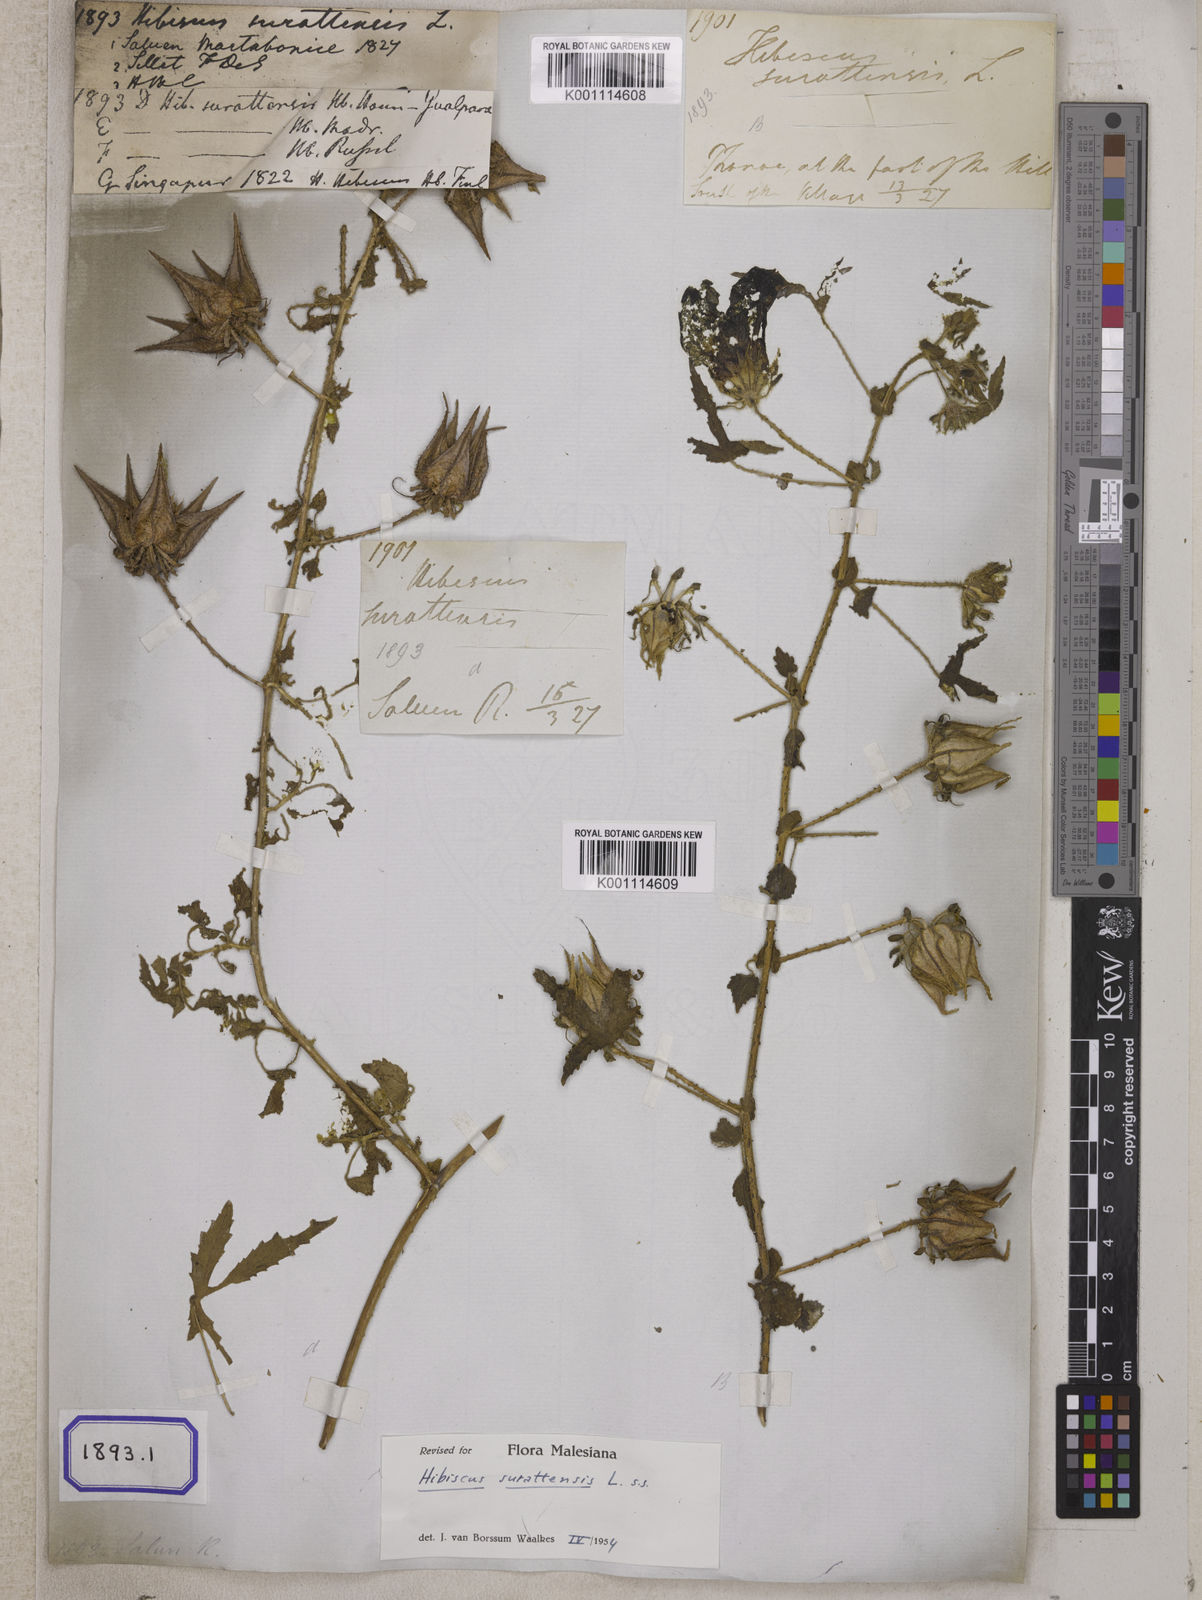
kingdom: Plantae
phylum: Tracheophyta
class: Magnoliopsida
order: Malvales
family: Malvaceae
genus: Hibiscus
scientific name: Hibiscus surattensis
